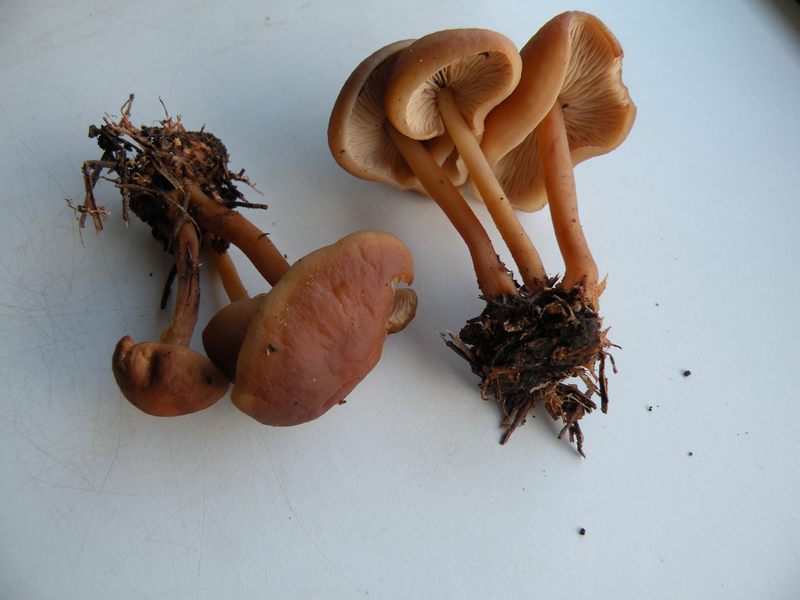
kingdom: Fungi
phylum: Basidiomycota
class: Agaricomycetes
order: Agaricales
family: Omphalotaceae
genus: Gymnopus
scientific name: Gymnopus ocior
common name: mørk fladhat
